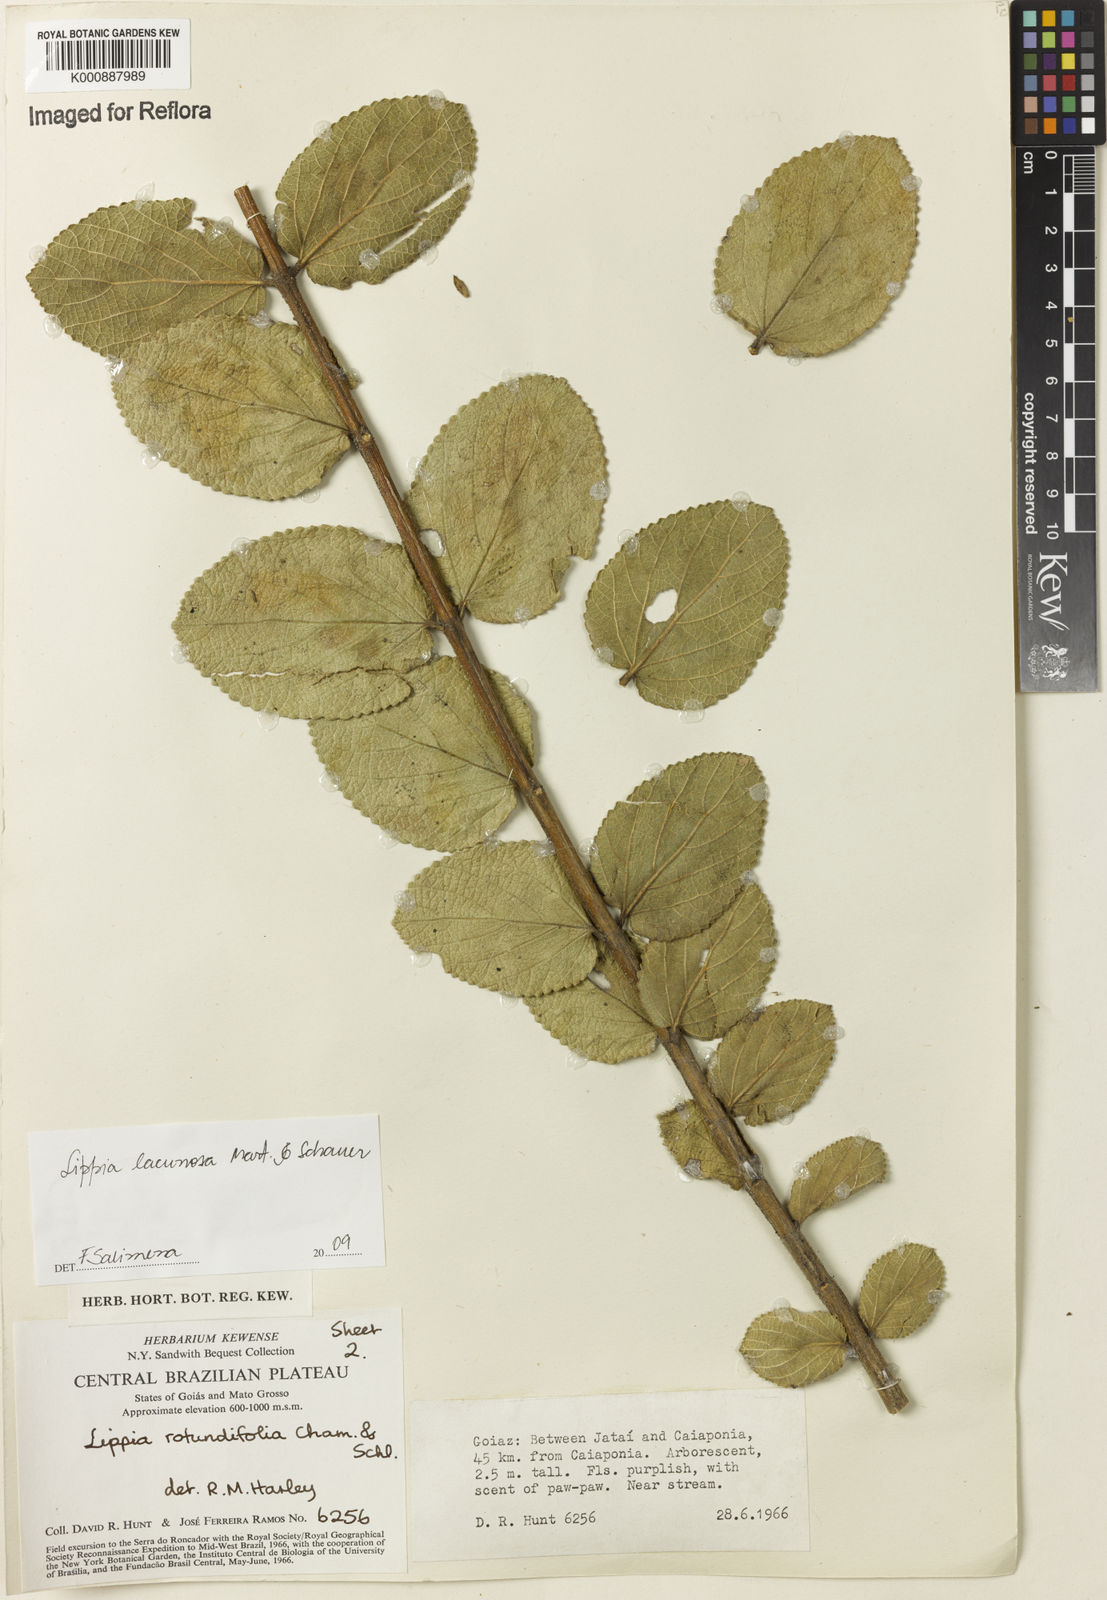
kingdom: Plantae
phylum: Tracheophyta
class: Magnoliopsida
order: Lamiales
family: Verbenaceae
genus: Lippia
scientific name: Lippia lacunosa
